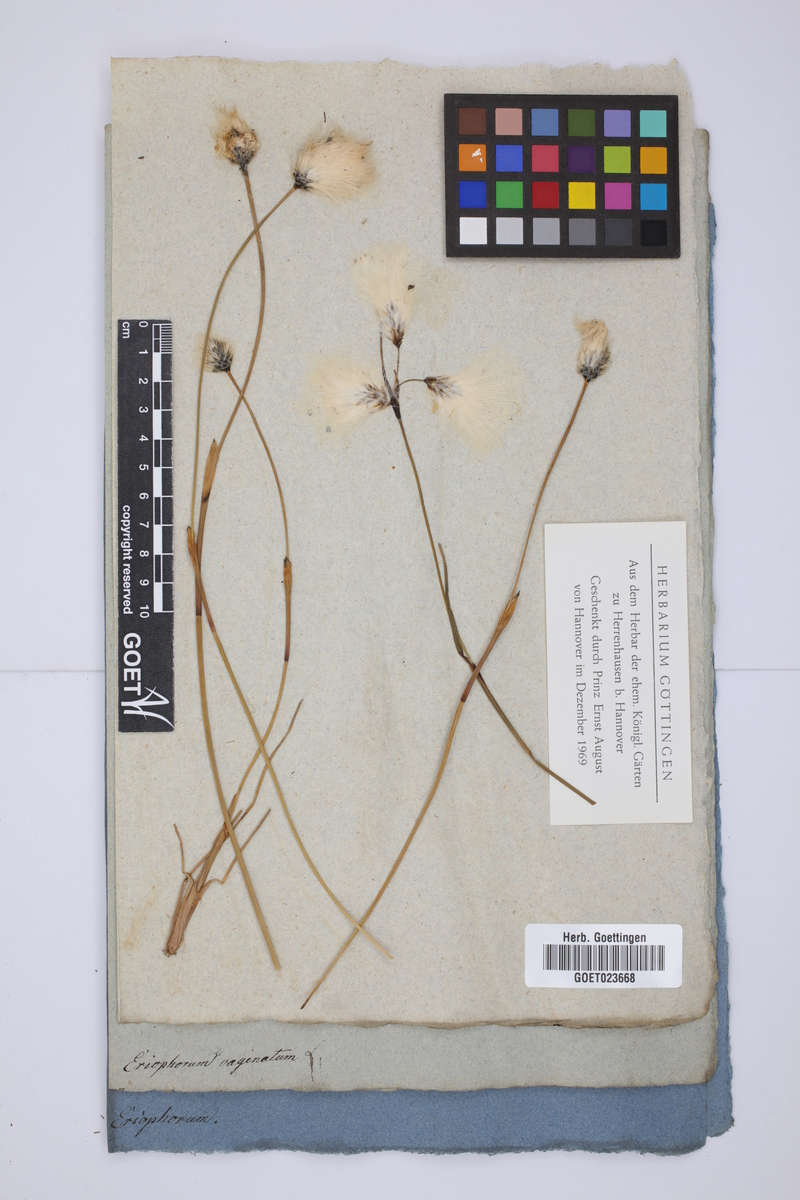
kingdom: Plantae
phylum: Tracheophyta
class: Liliopsida
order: Poales
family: Cyperaceae
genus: Eriophorum
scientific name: Eriophorum vaginatum
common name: Hare's-tail cottongrass
